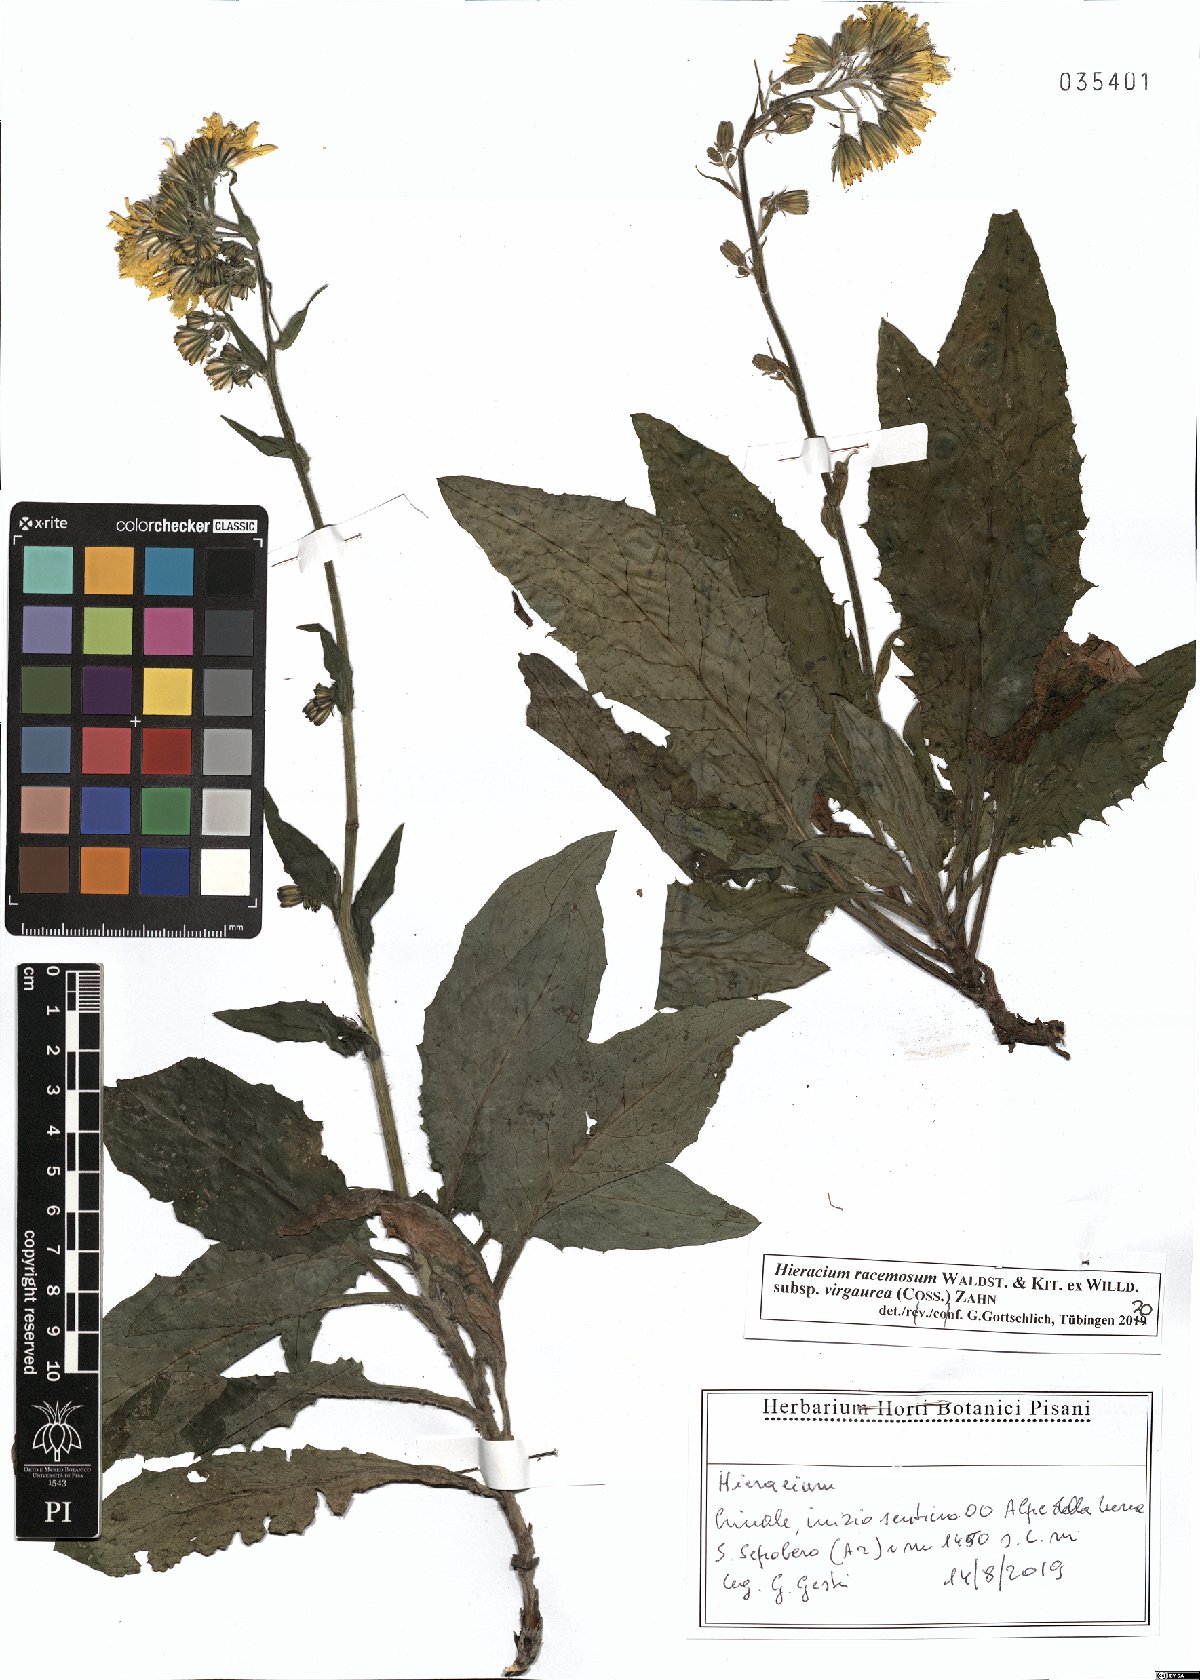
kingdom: Plantae
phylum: Tracheophyta
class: Magnoliopsida
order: Asterales
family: Asteraceae
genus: Hieracium
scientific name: Hieracium racemosum
